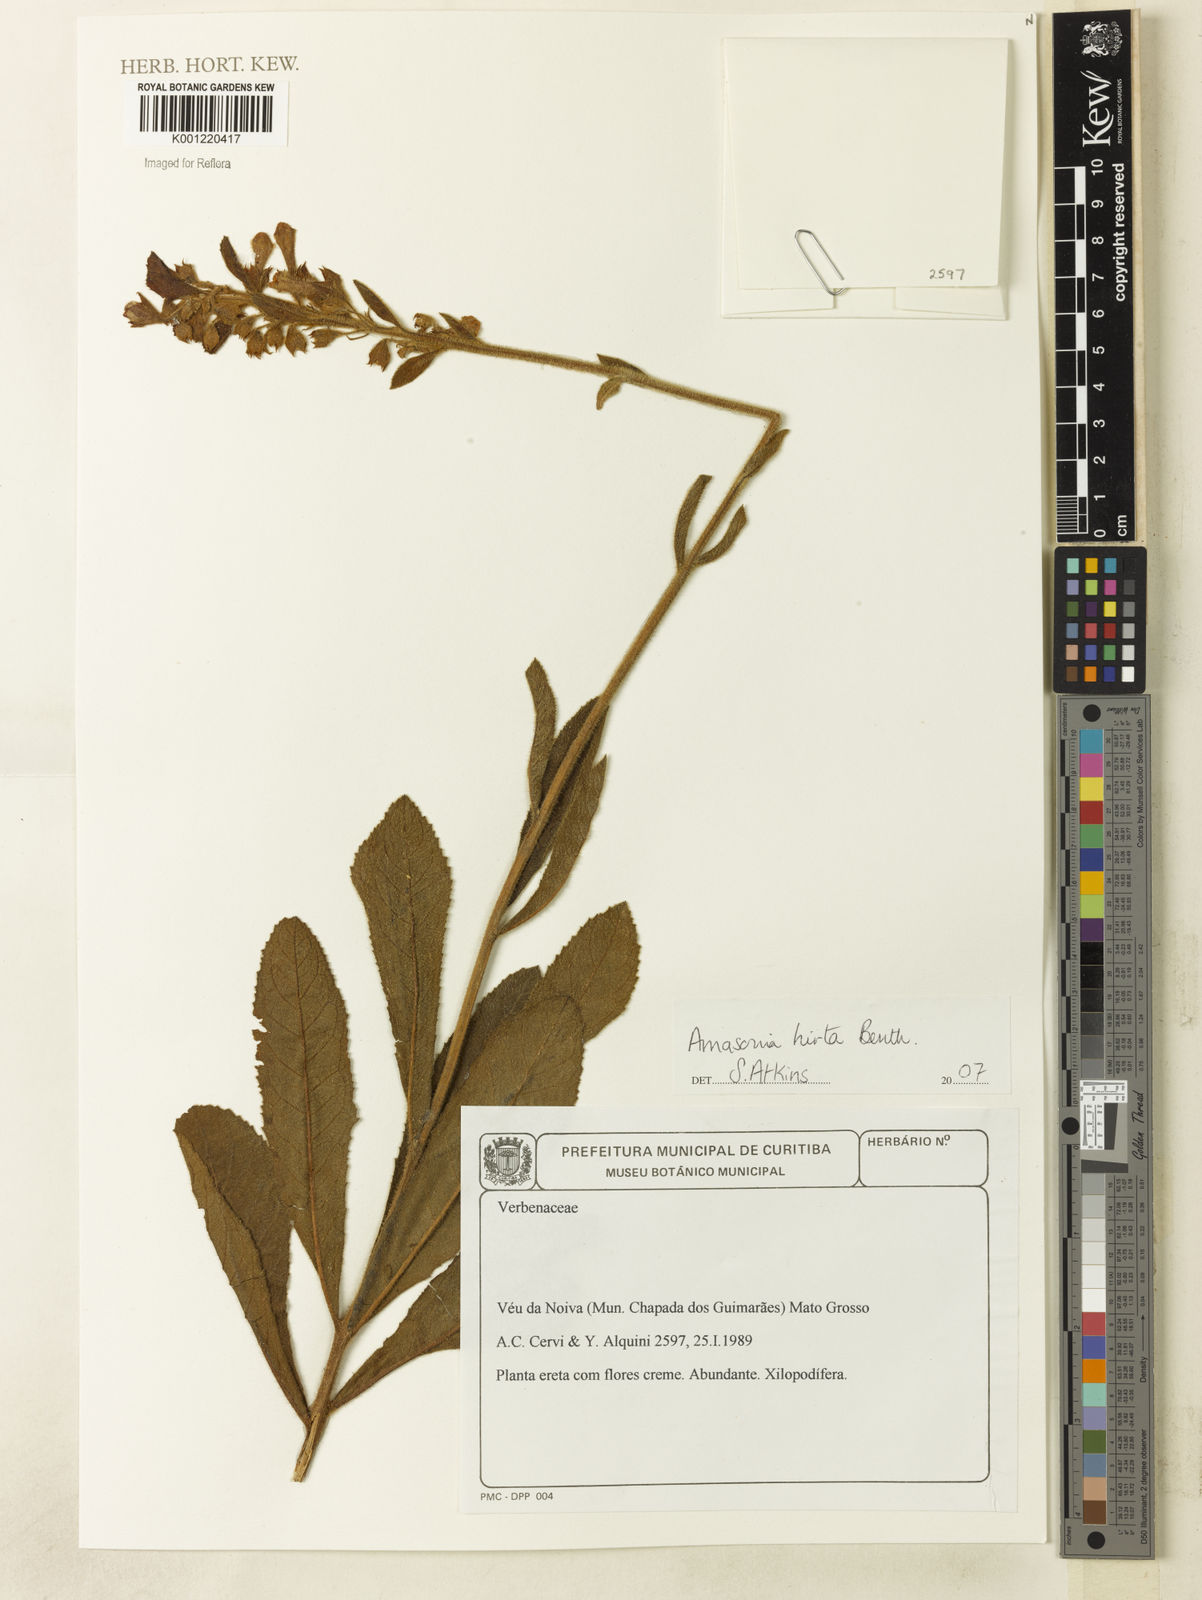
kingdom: Plantae
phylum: Tracheophyta
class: Magnoliopsida
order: Lamiales
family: Lamiaceae
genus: Amasonia
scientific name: Amasonia hirta
